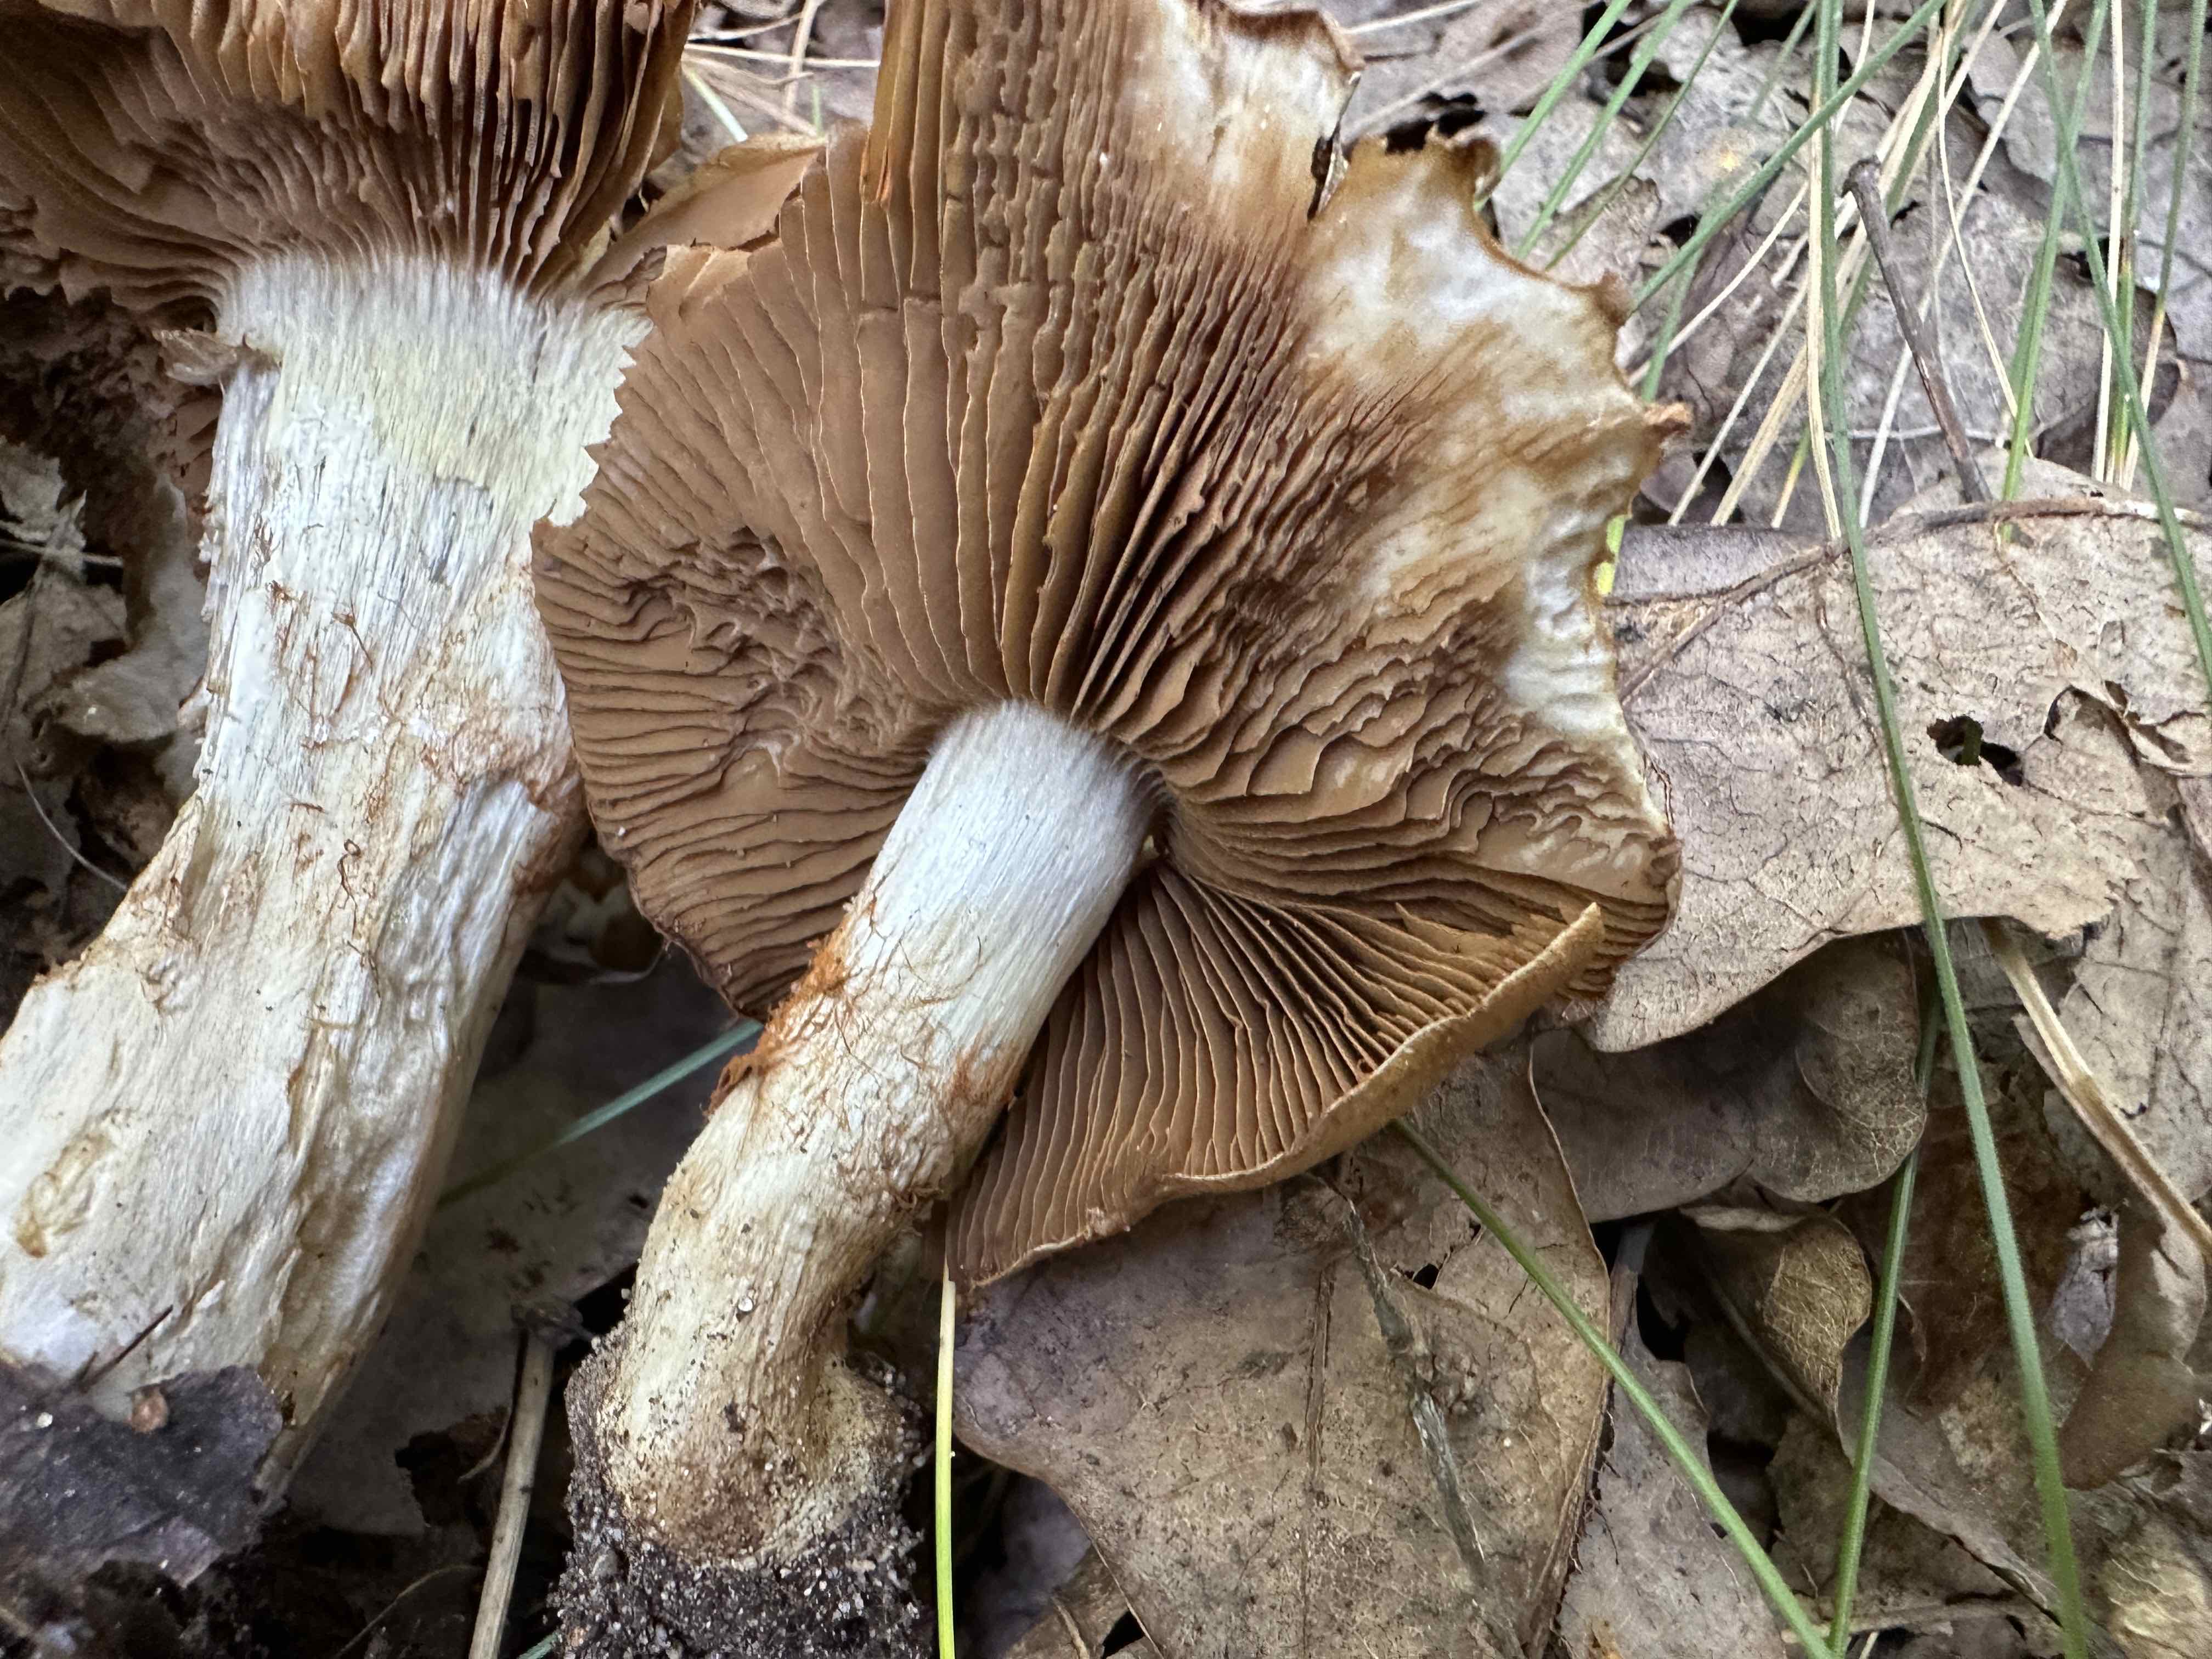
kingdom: Fungi
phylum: Basidiomycota
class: Agaricomycetes
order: Agaricales
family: Cortinariaceae
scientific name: Cortinariaceae
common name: slørhatfamilien
